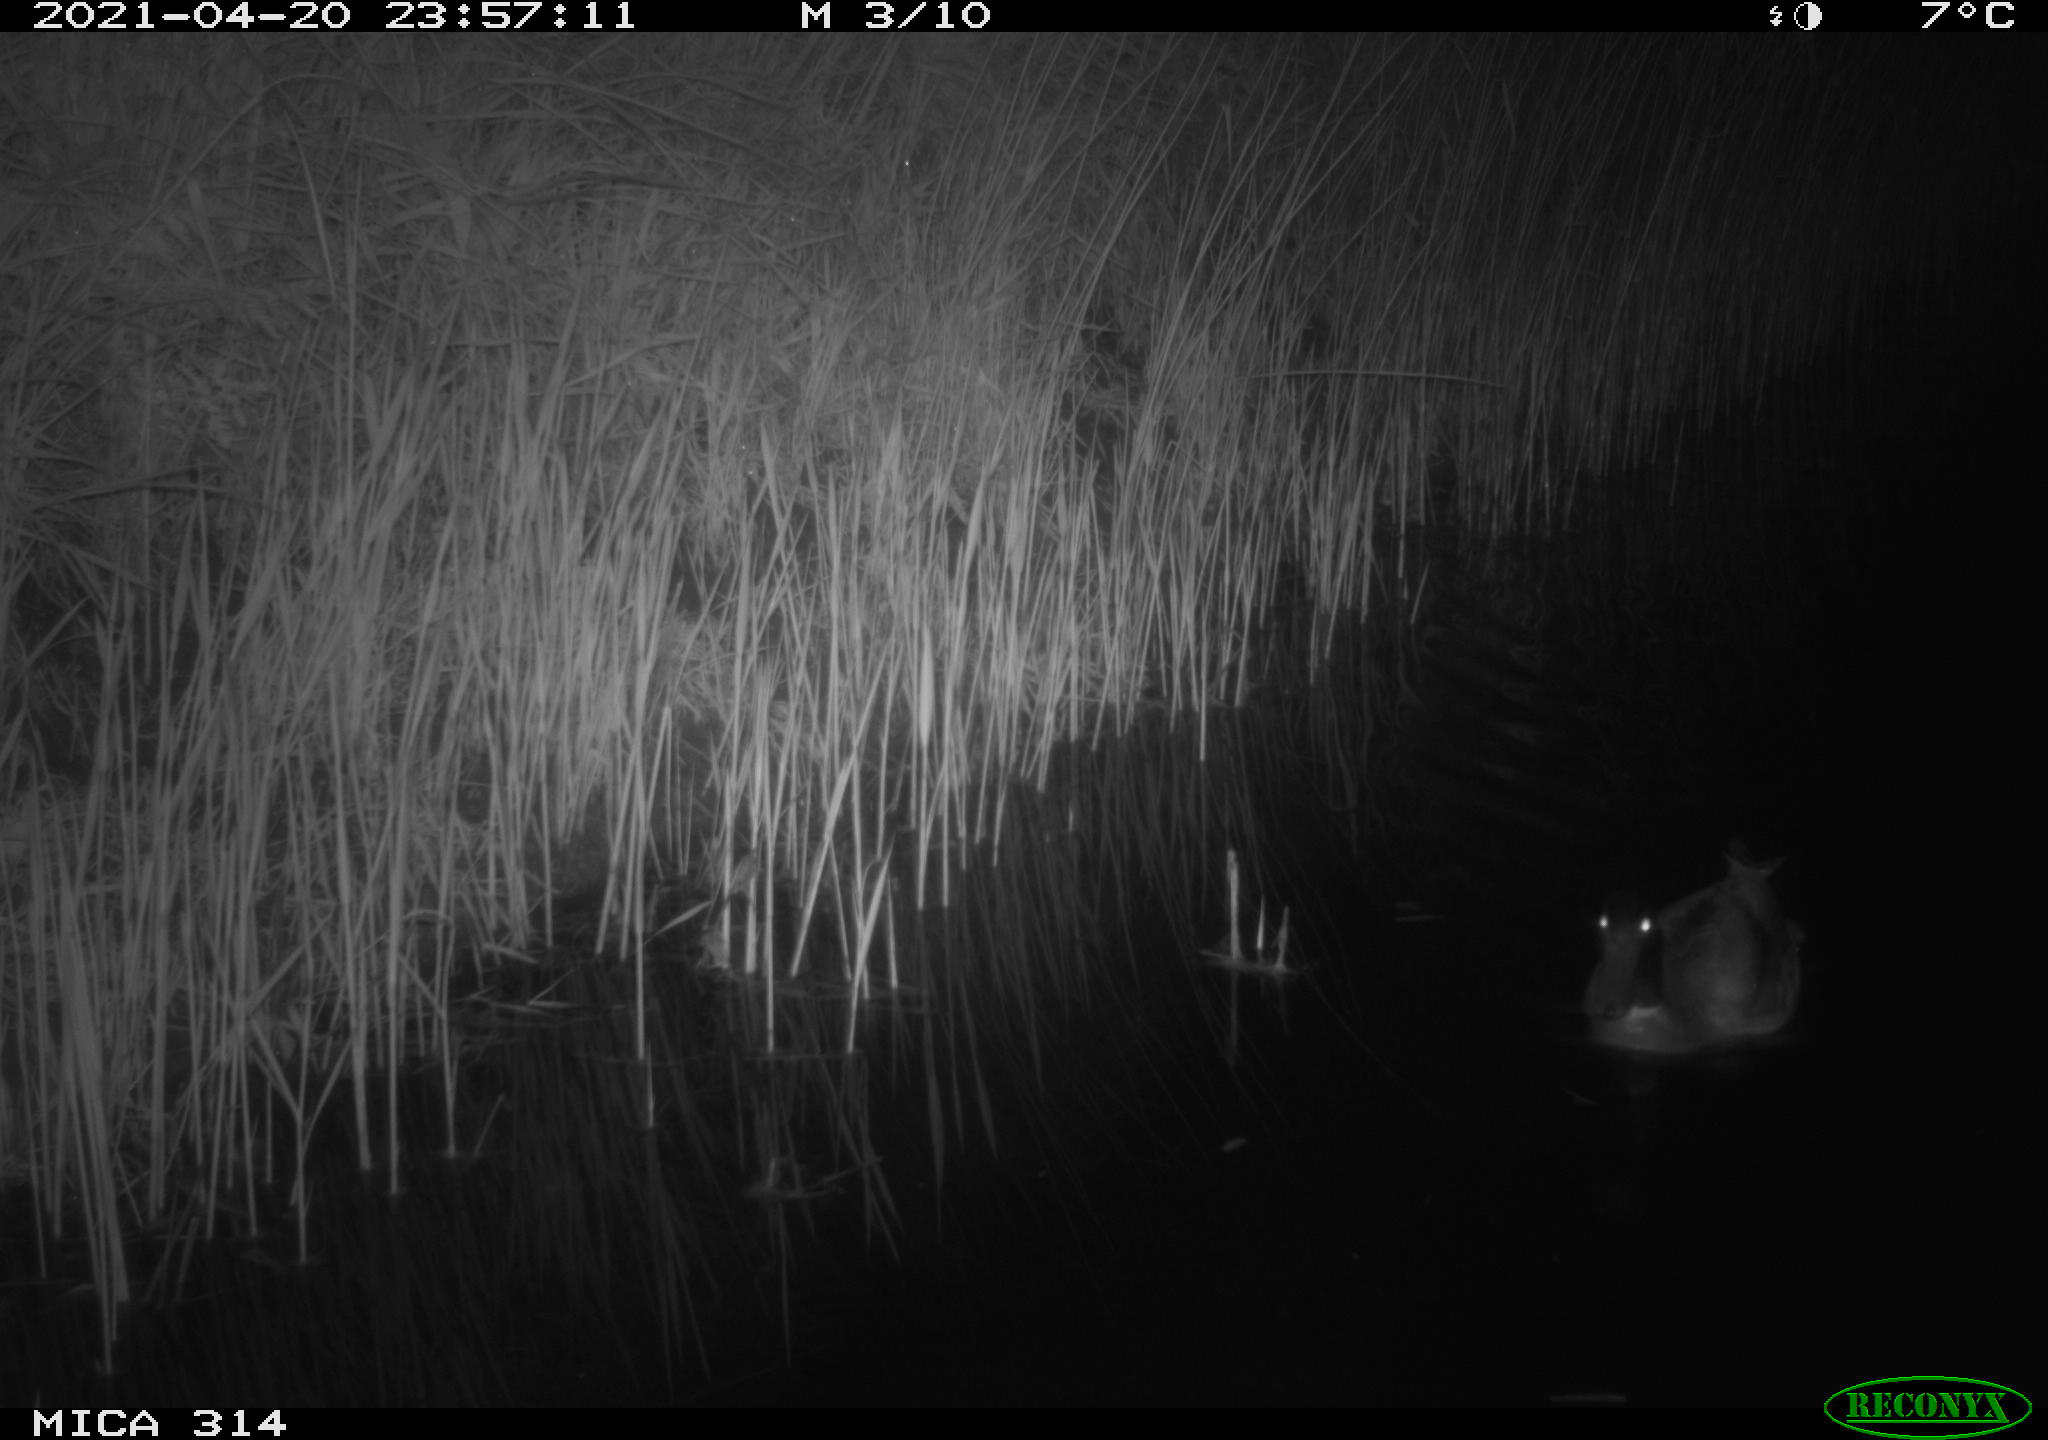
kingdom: Animalia
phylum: Chordata
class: Aves
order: Anseriformes
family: Anatidae
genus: Anas
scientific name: Anas platyrhynchos
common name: Mallard
